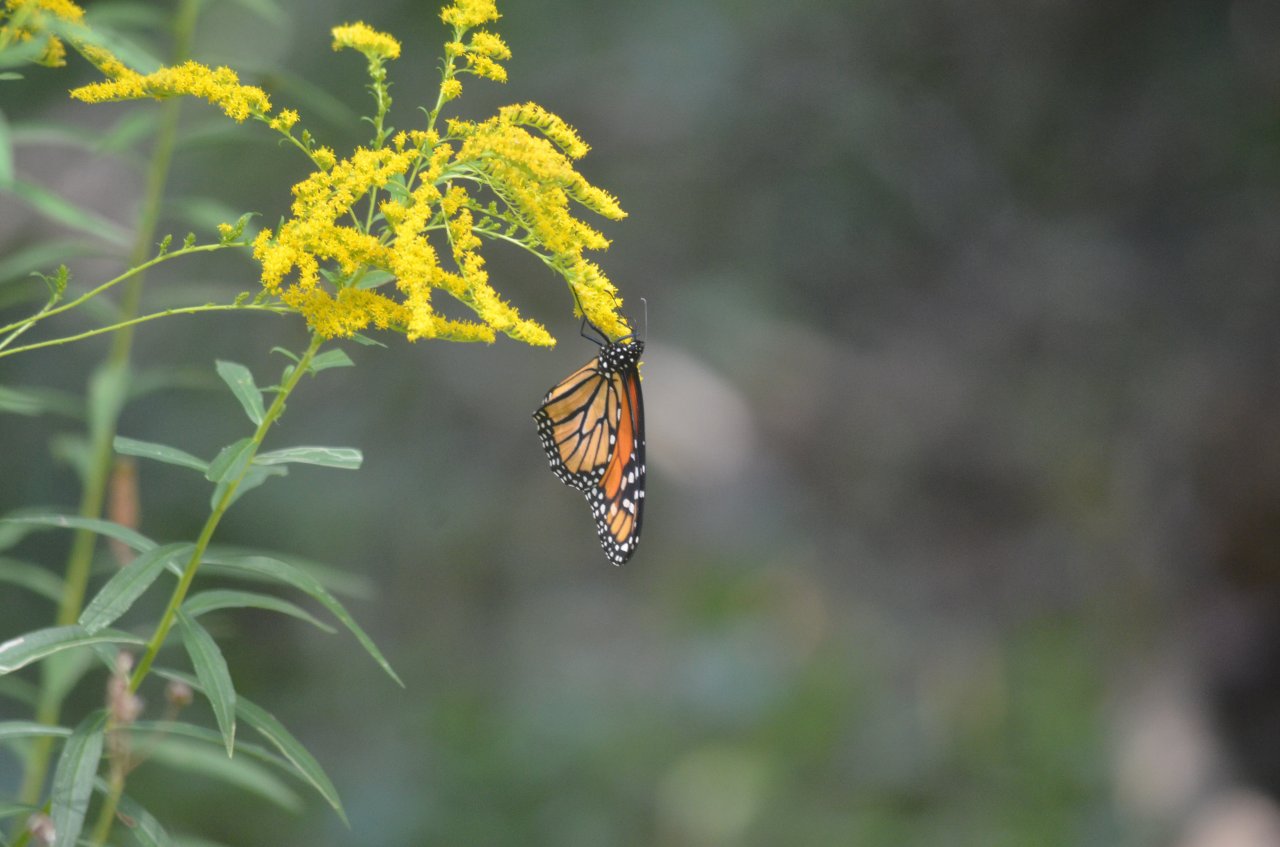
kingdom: Animalia
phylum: Arthropoda
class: Insecta
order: Lepidoptera
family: Nymphalidae
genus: Danaus
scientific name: Danaus plexippus
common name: Monarch
